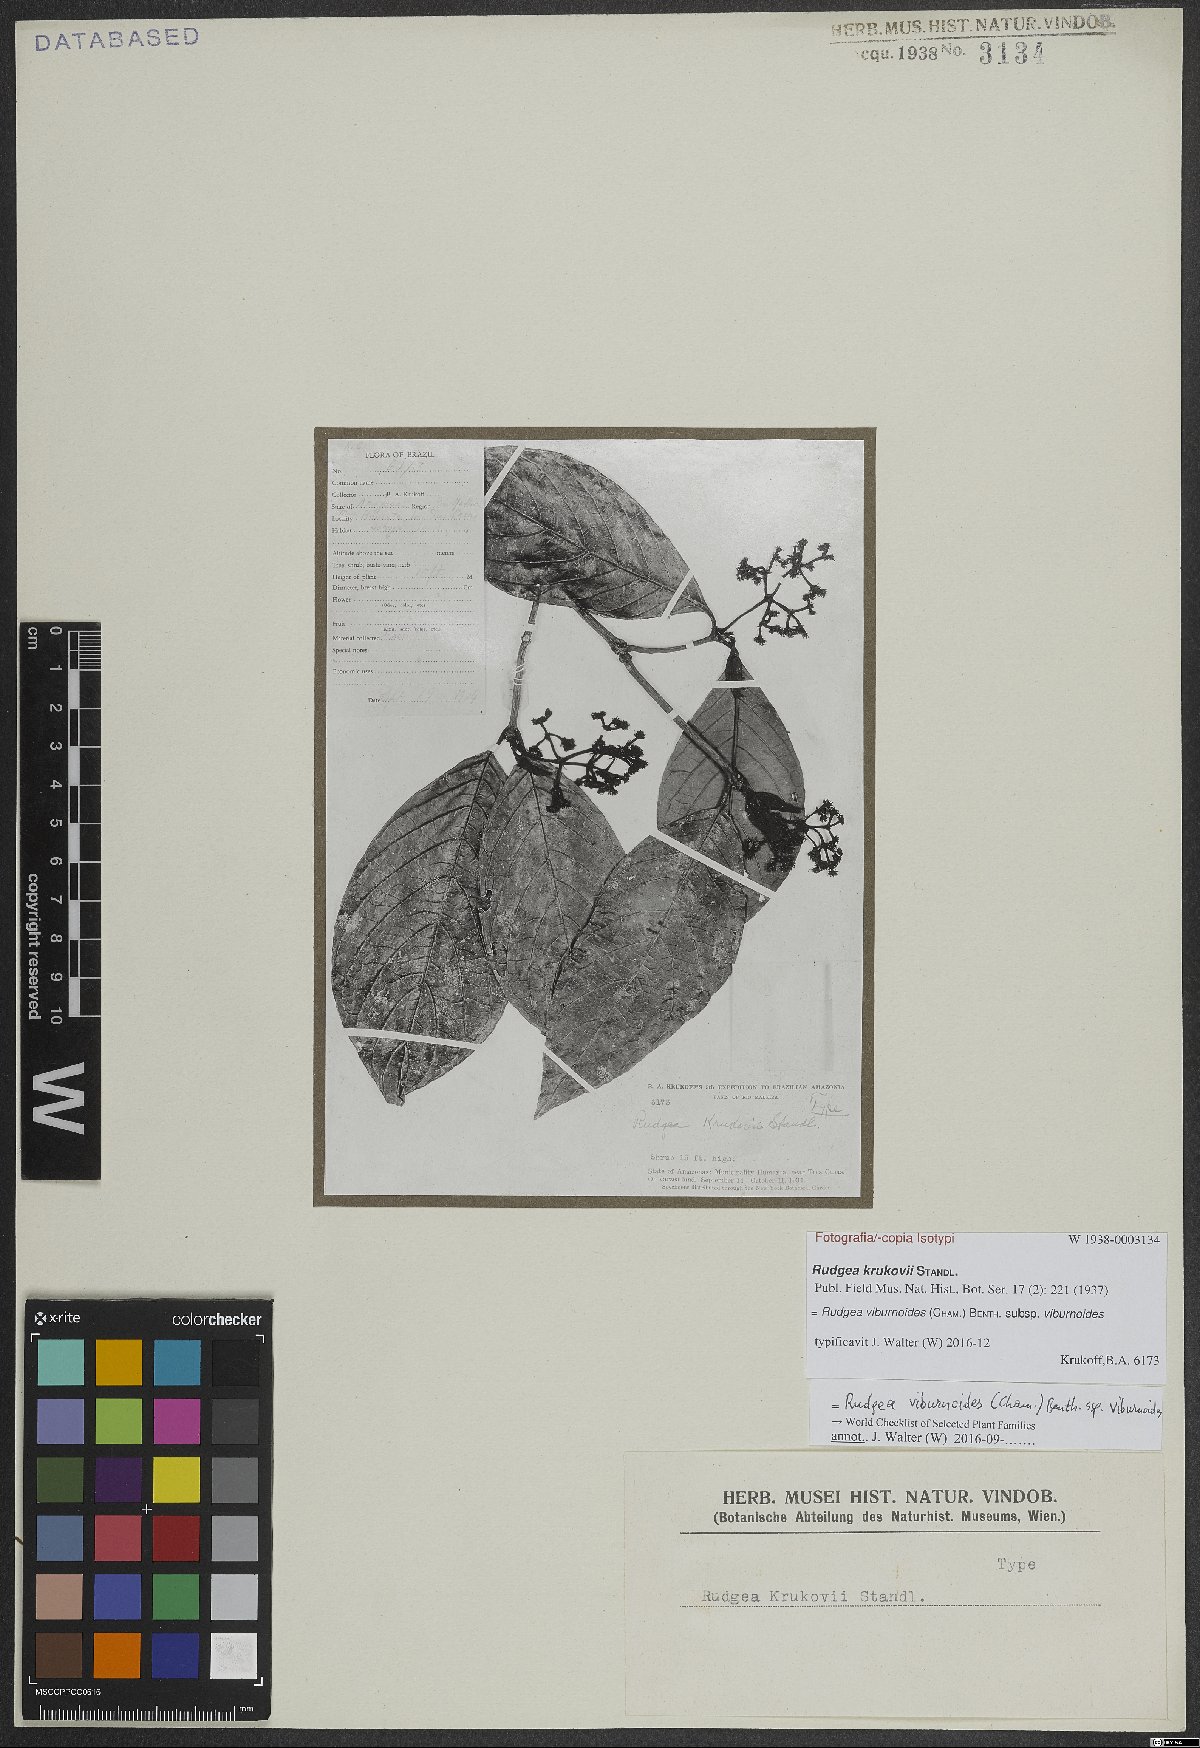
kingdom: Plantae
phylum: Tracheophyta
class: Magnoliopsida
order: Gentianales
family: Rubiaceae
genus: Rudgea
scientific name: Rudgea viburnoides
